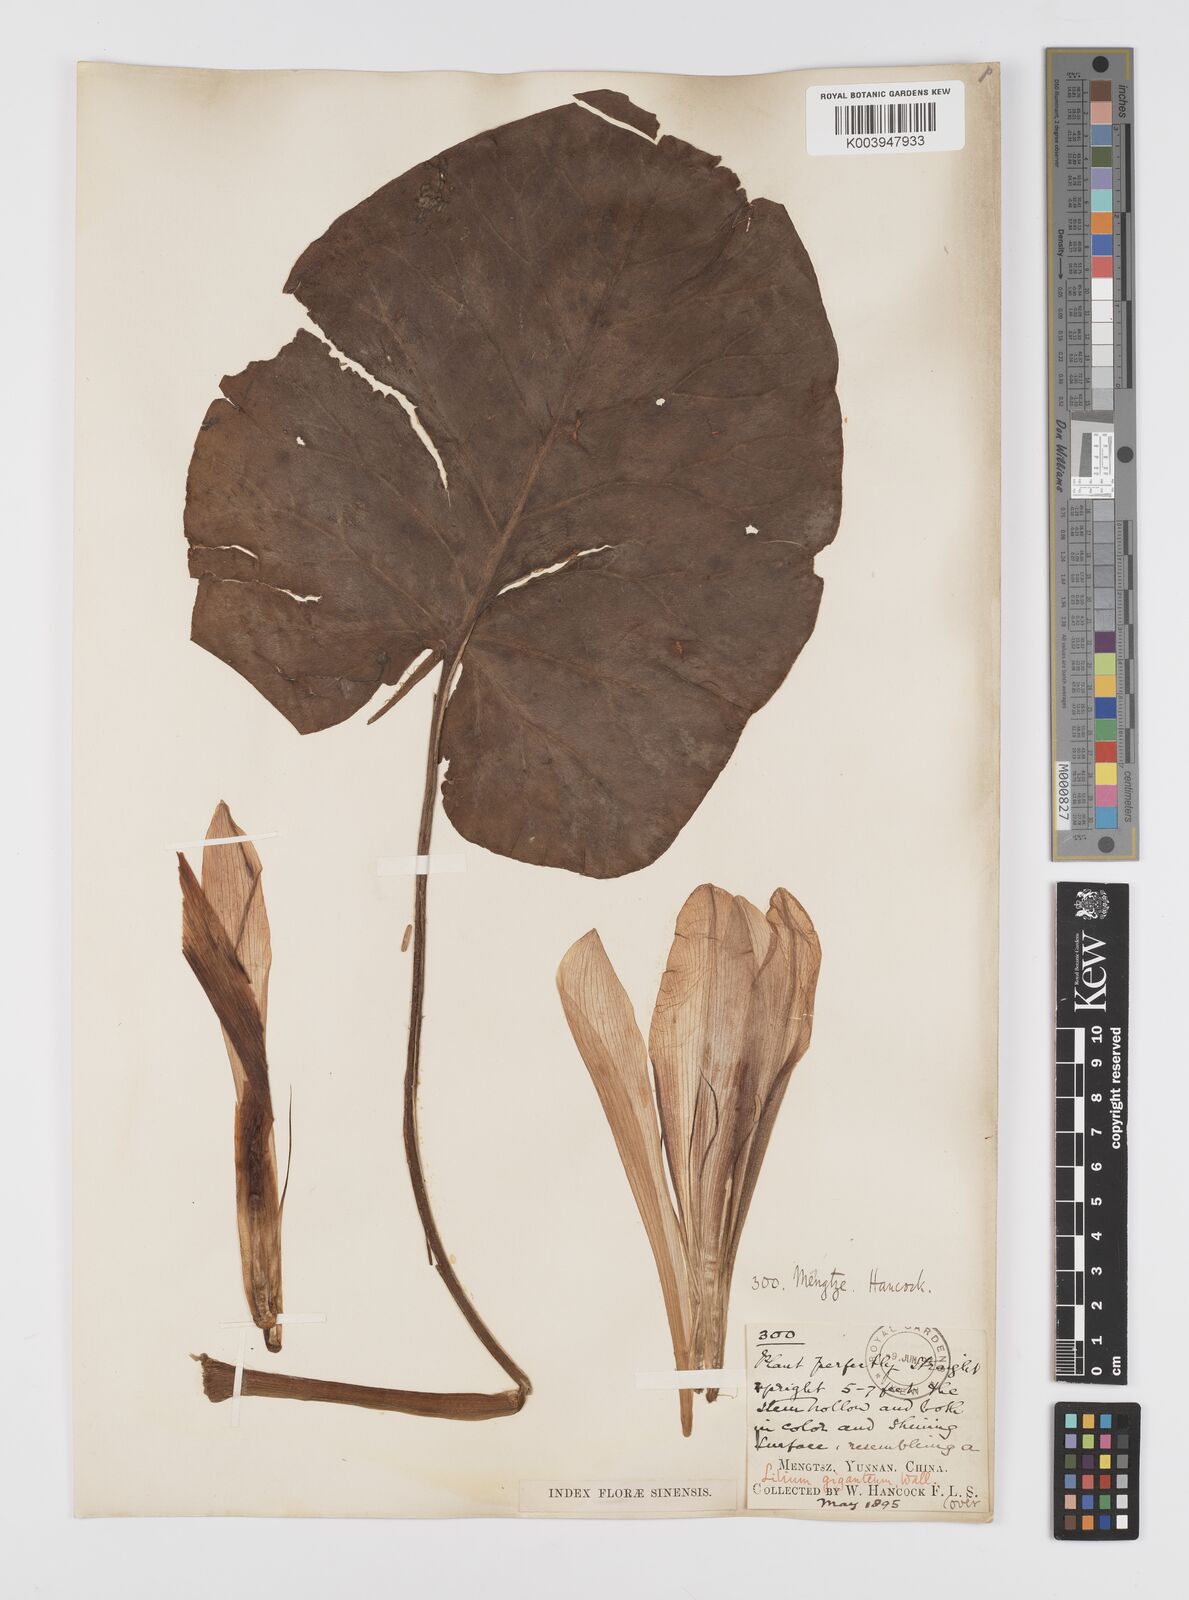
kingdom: Plantae
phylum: Tracheophyta
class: Liliopsida
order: Liliales
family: Liliaceae
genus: Cardiocrinum
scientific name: Cardiocrinum giganteum
